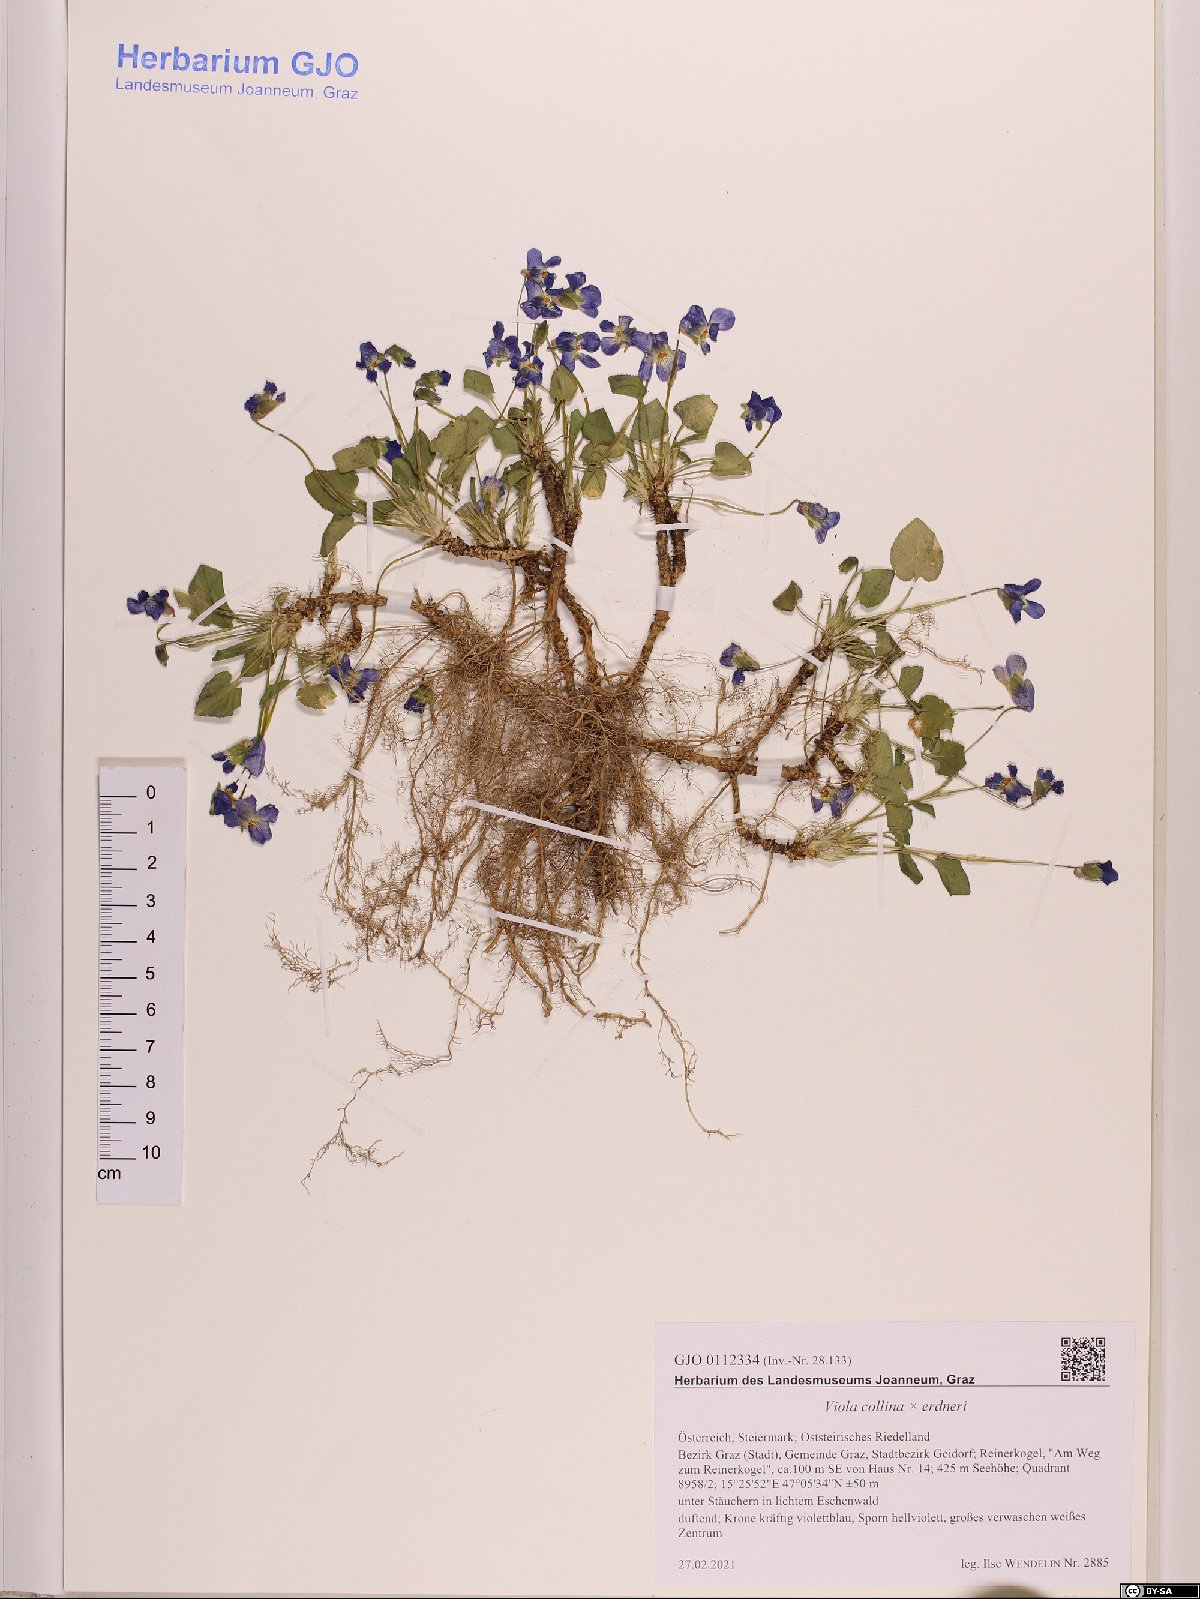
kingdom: Plantae
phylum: Tracheophyta
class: Magnoliopsida
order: Malpighiales
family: Violaceae
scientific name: Violaceae
